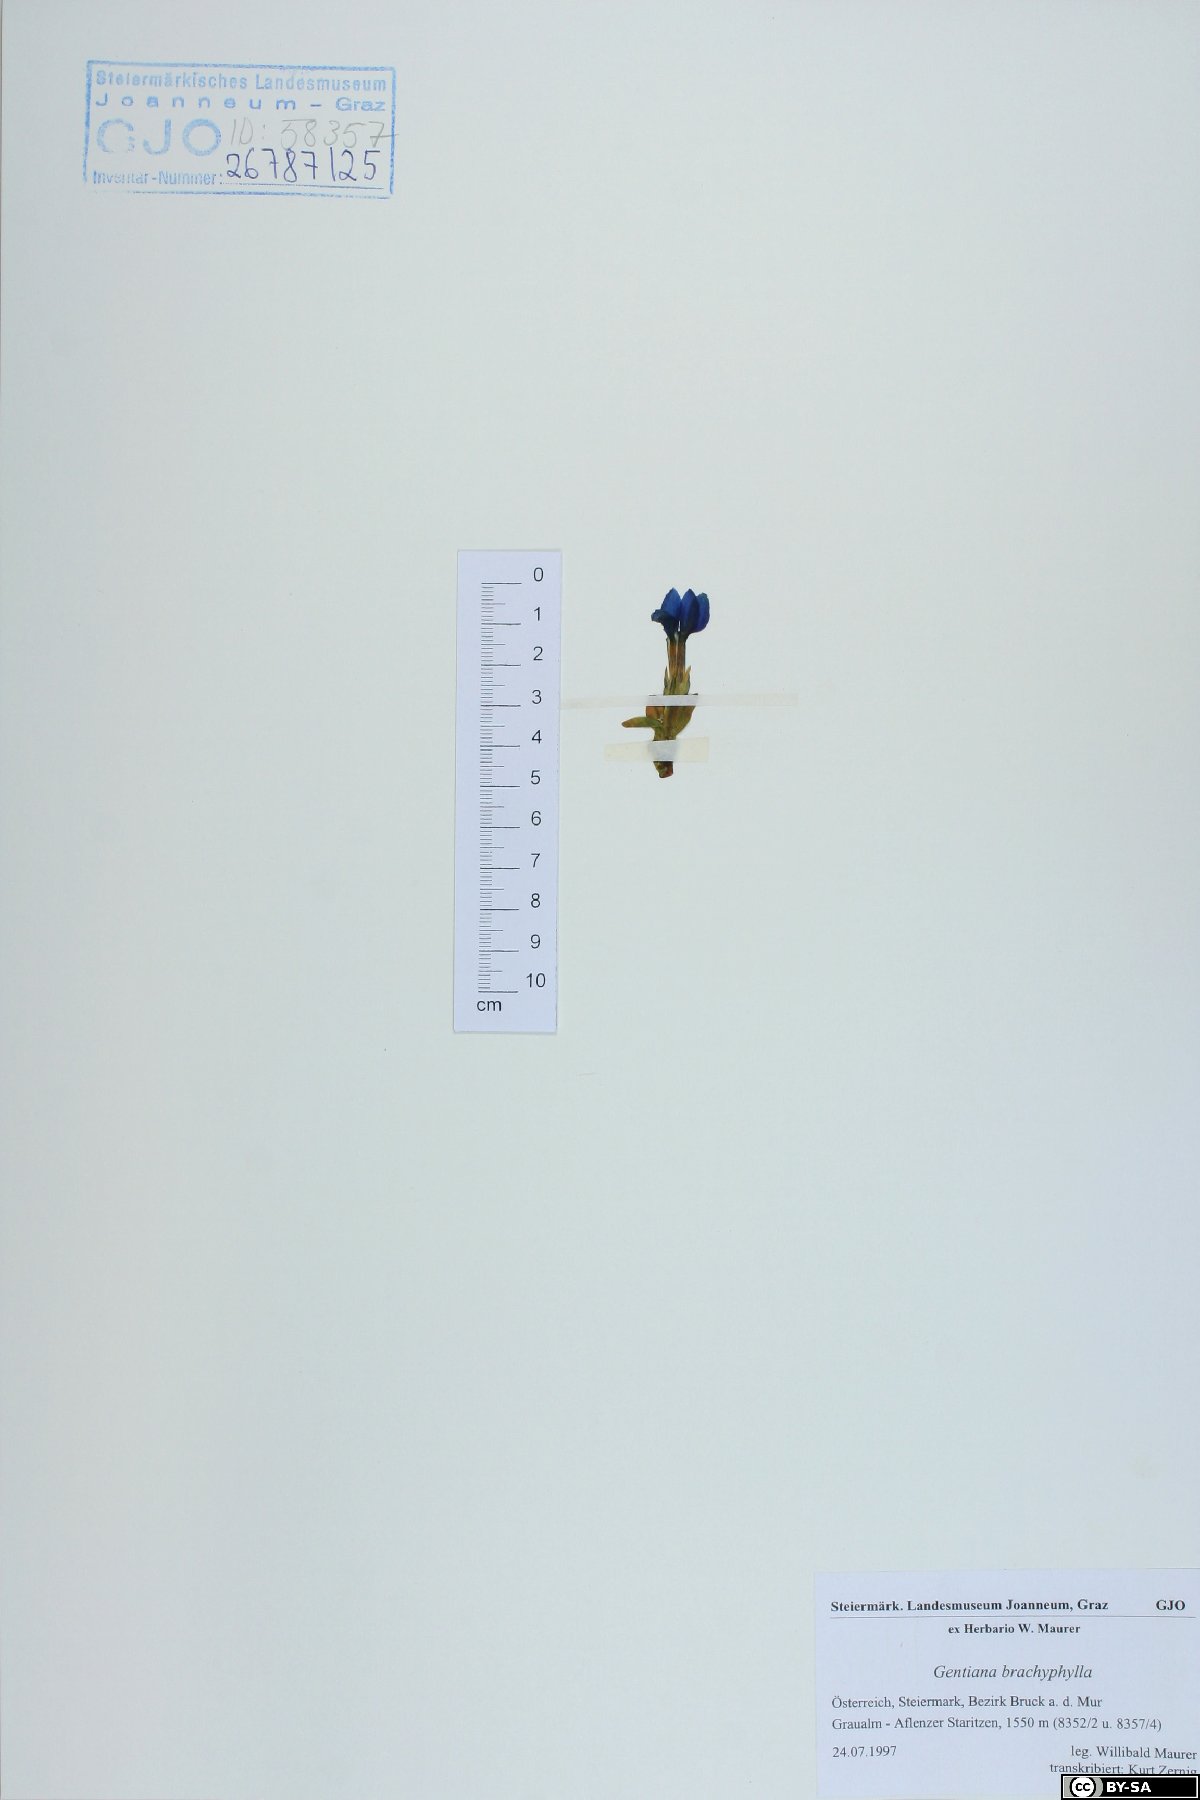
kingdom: Plantae
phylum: Tracheophyta
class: Magnoliopsida
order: Gentianales
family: Gentianaceae
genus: Gentiana
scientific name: Gentiana brachyphylla
